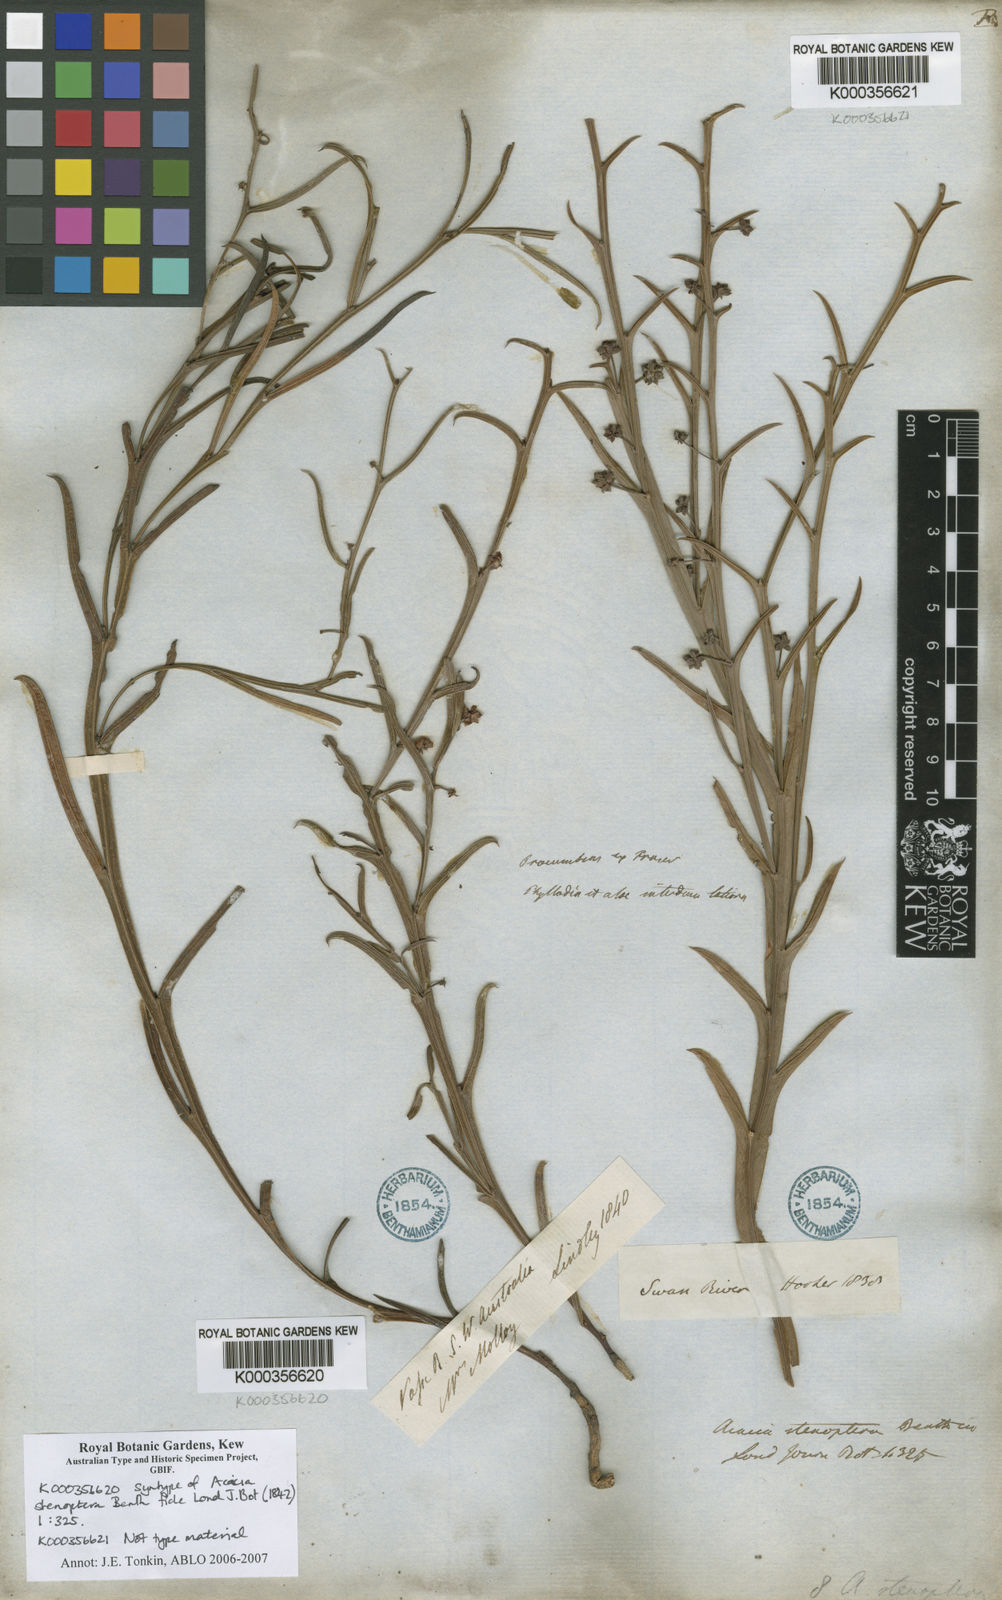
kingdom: Plantae
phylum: Tracheophyta
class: Magnoliopsida
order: Fabales
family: Fabaceae
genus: Acacia
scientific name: Acacia stenoptera
